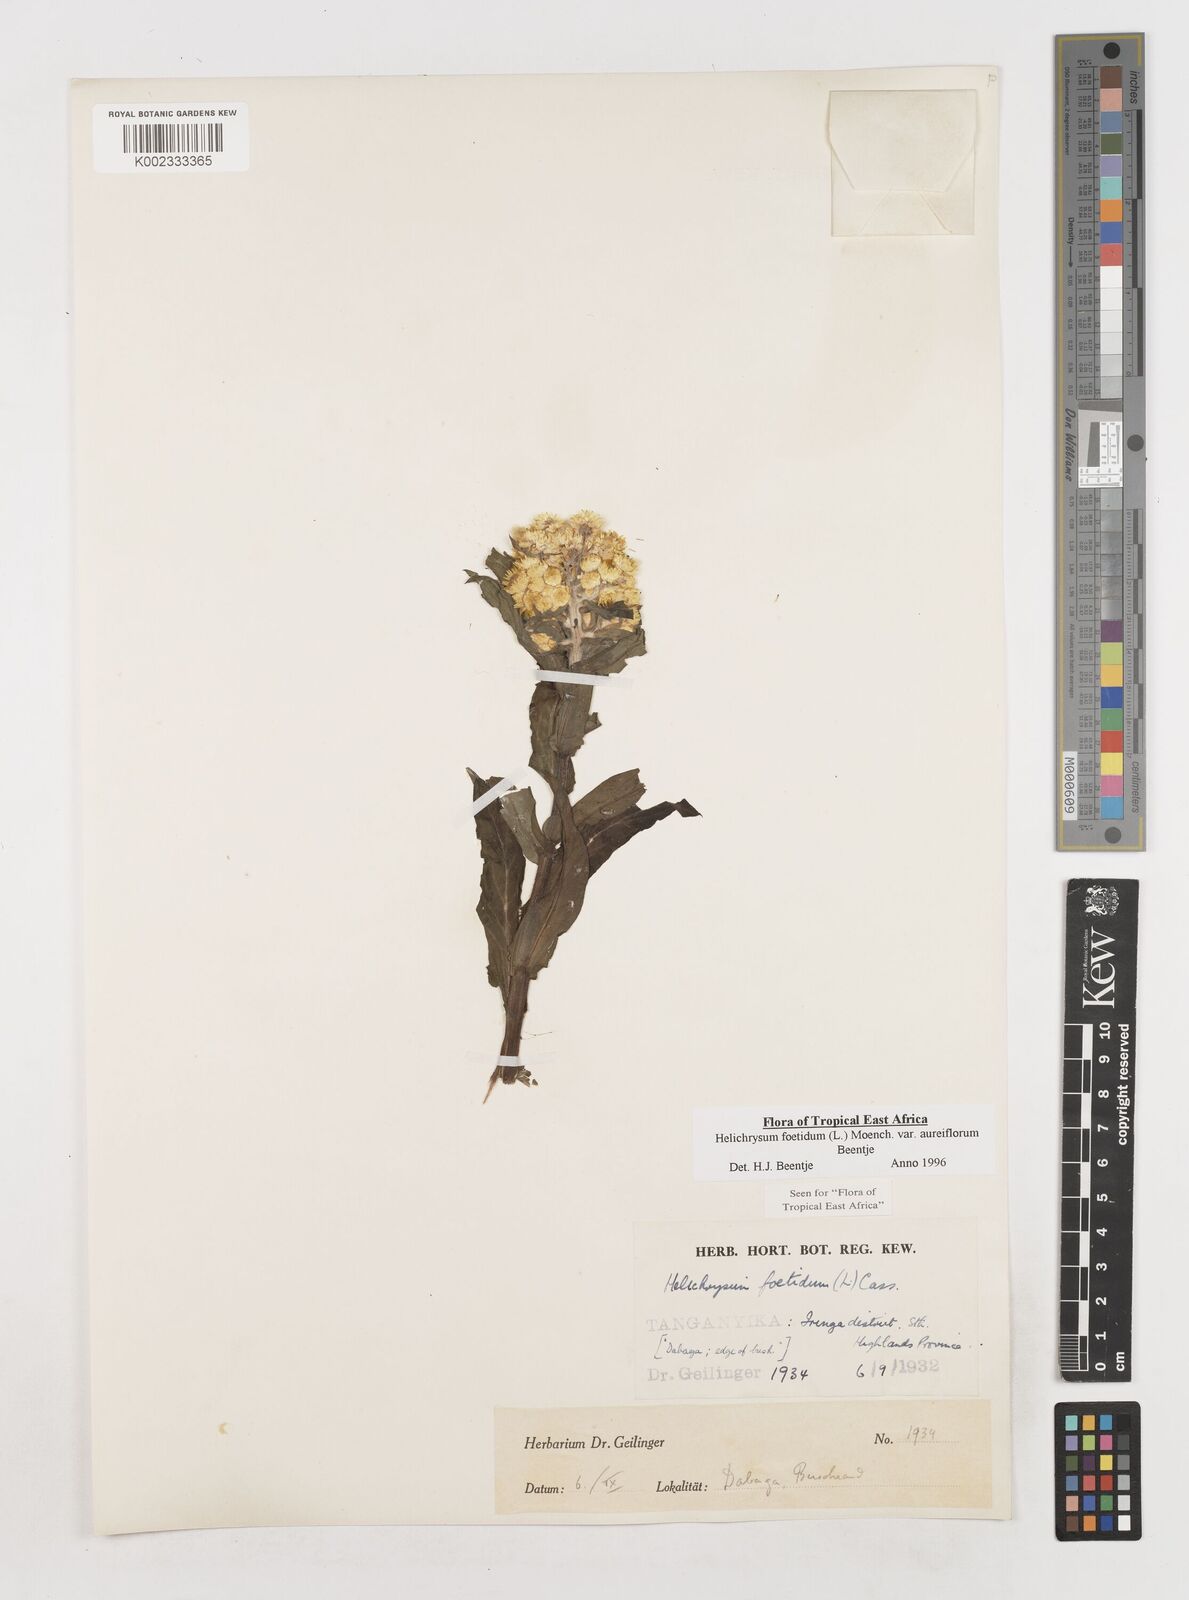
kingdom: Plantae
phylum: Tracheophyta
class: Magnoliopsida
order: Asterales
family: Asteraceae
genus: Helichrysum
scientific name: Helichrysum foetidum
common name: Stinking everlasting
